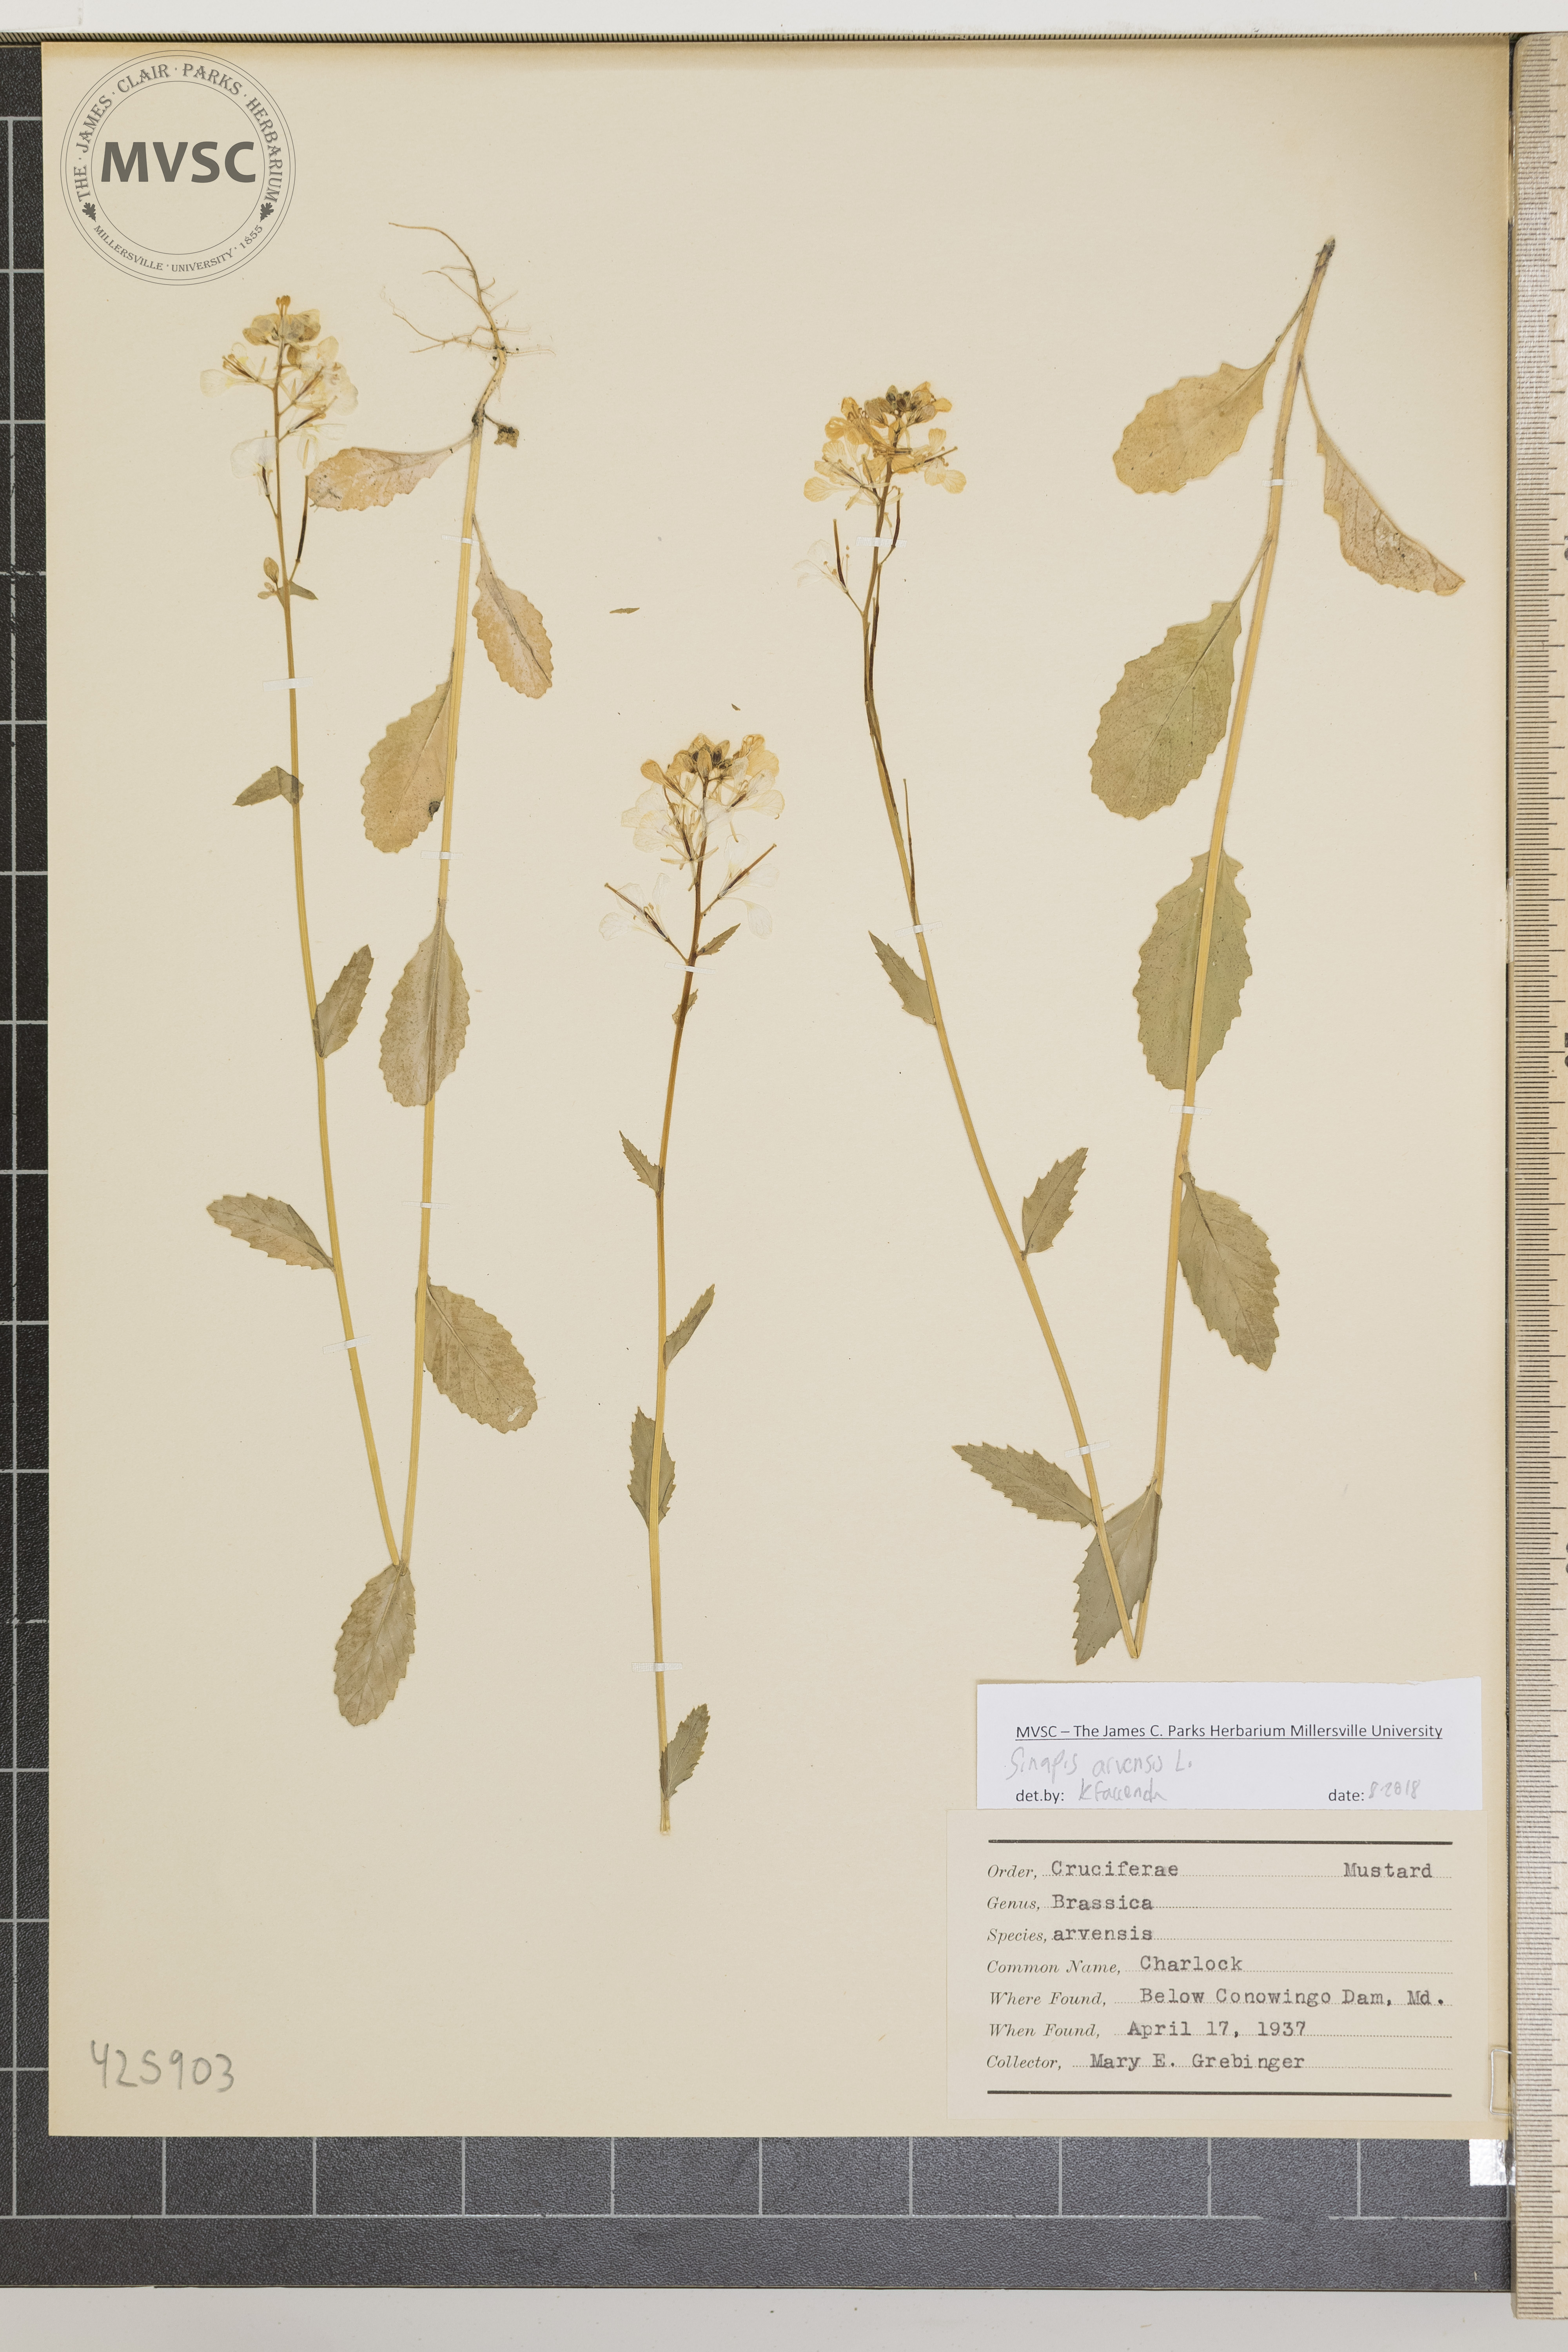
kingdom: Plantae
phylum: Tracheophyta
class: Magnoliopsida
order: Brassicales
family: Brassicaceae
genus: Sinapis
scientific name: Sinapis arvensis
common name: Charlock
